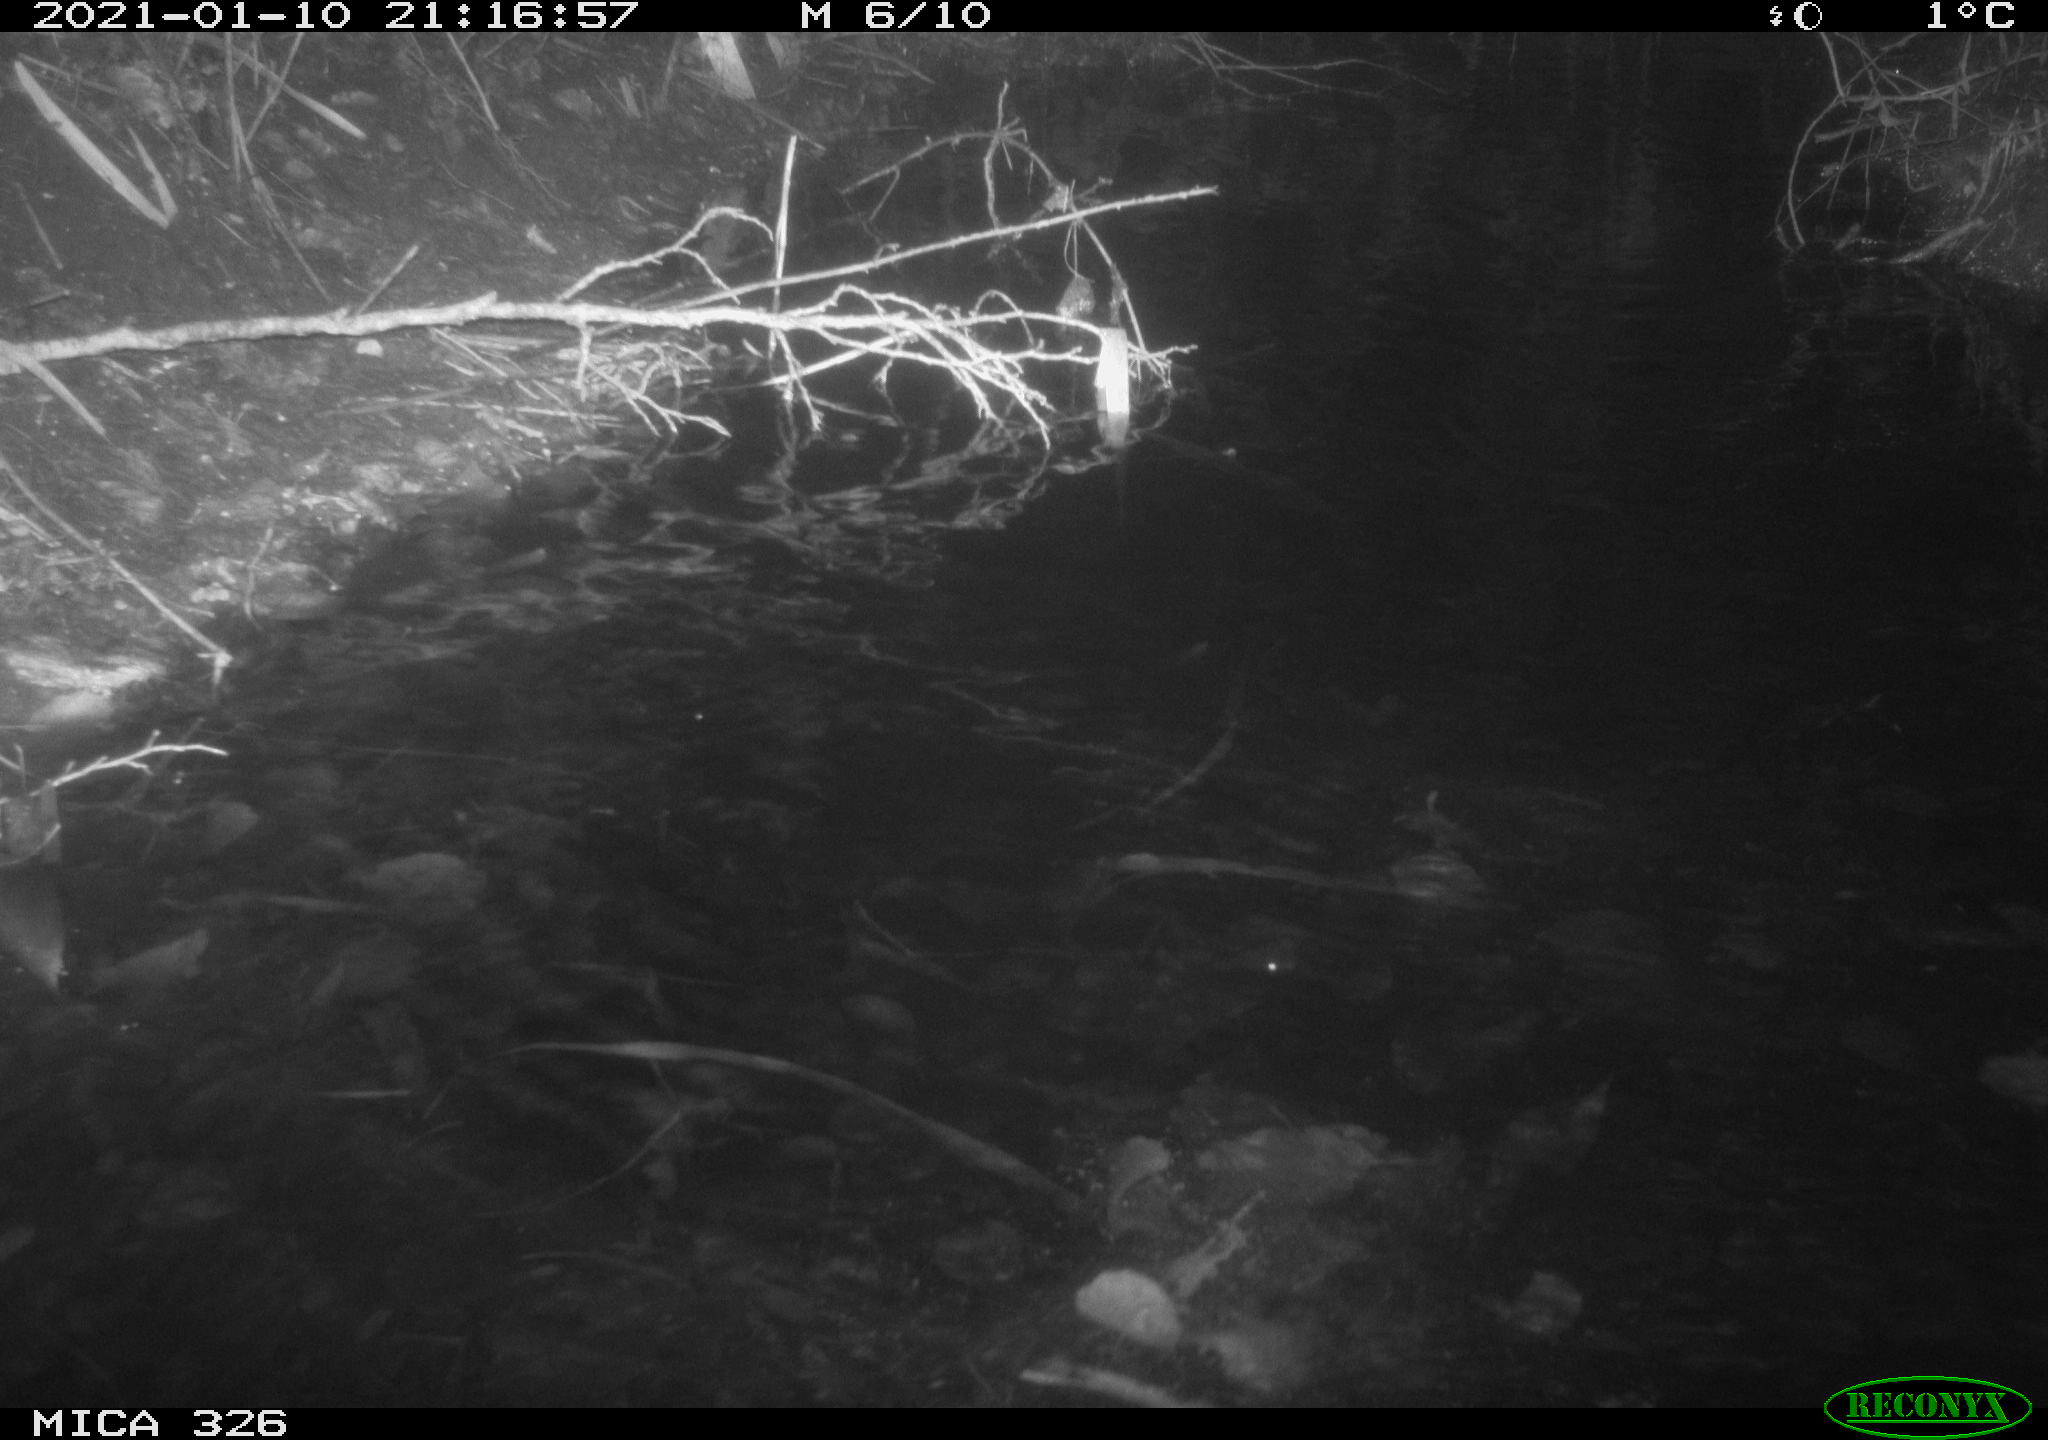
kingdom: Animalia
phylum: Chordata
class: Mammalia
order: Rodentia
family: Myocastoridae
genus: Myocastor
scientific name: Myocastor coypus
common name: Coypu
